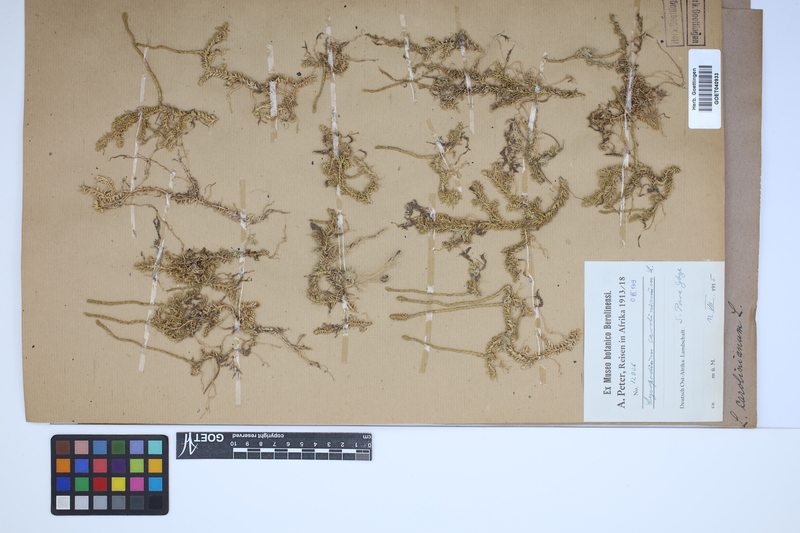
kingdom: Plantae
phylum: Tracheophyta
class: Lycopodiopsida
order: Lycopodiales
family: Lycopodiaceae
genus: Brownseya
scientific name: Brownseya serpentina
